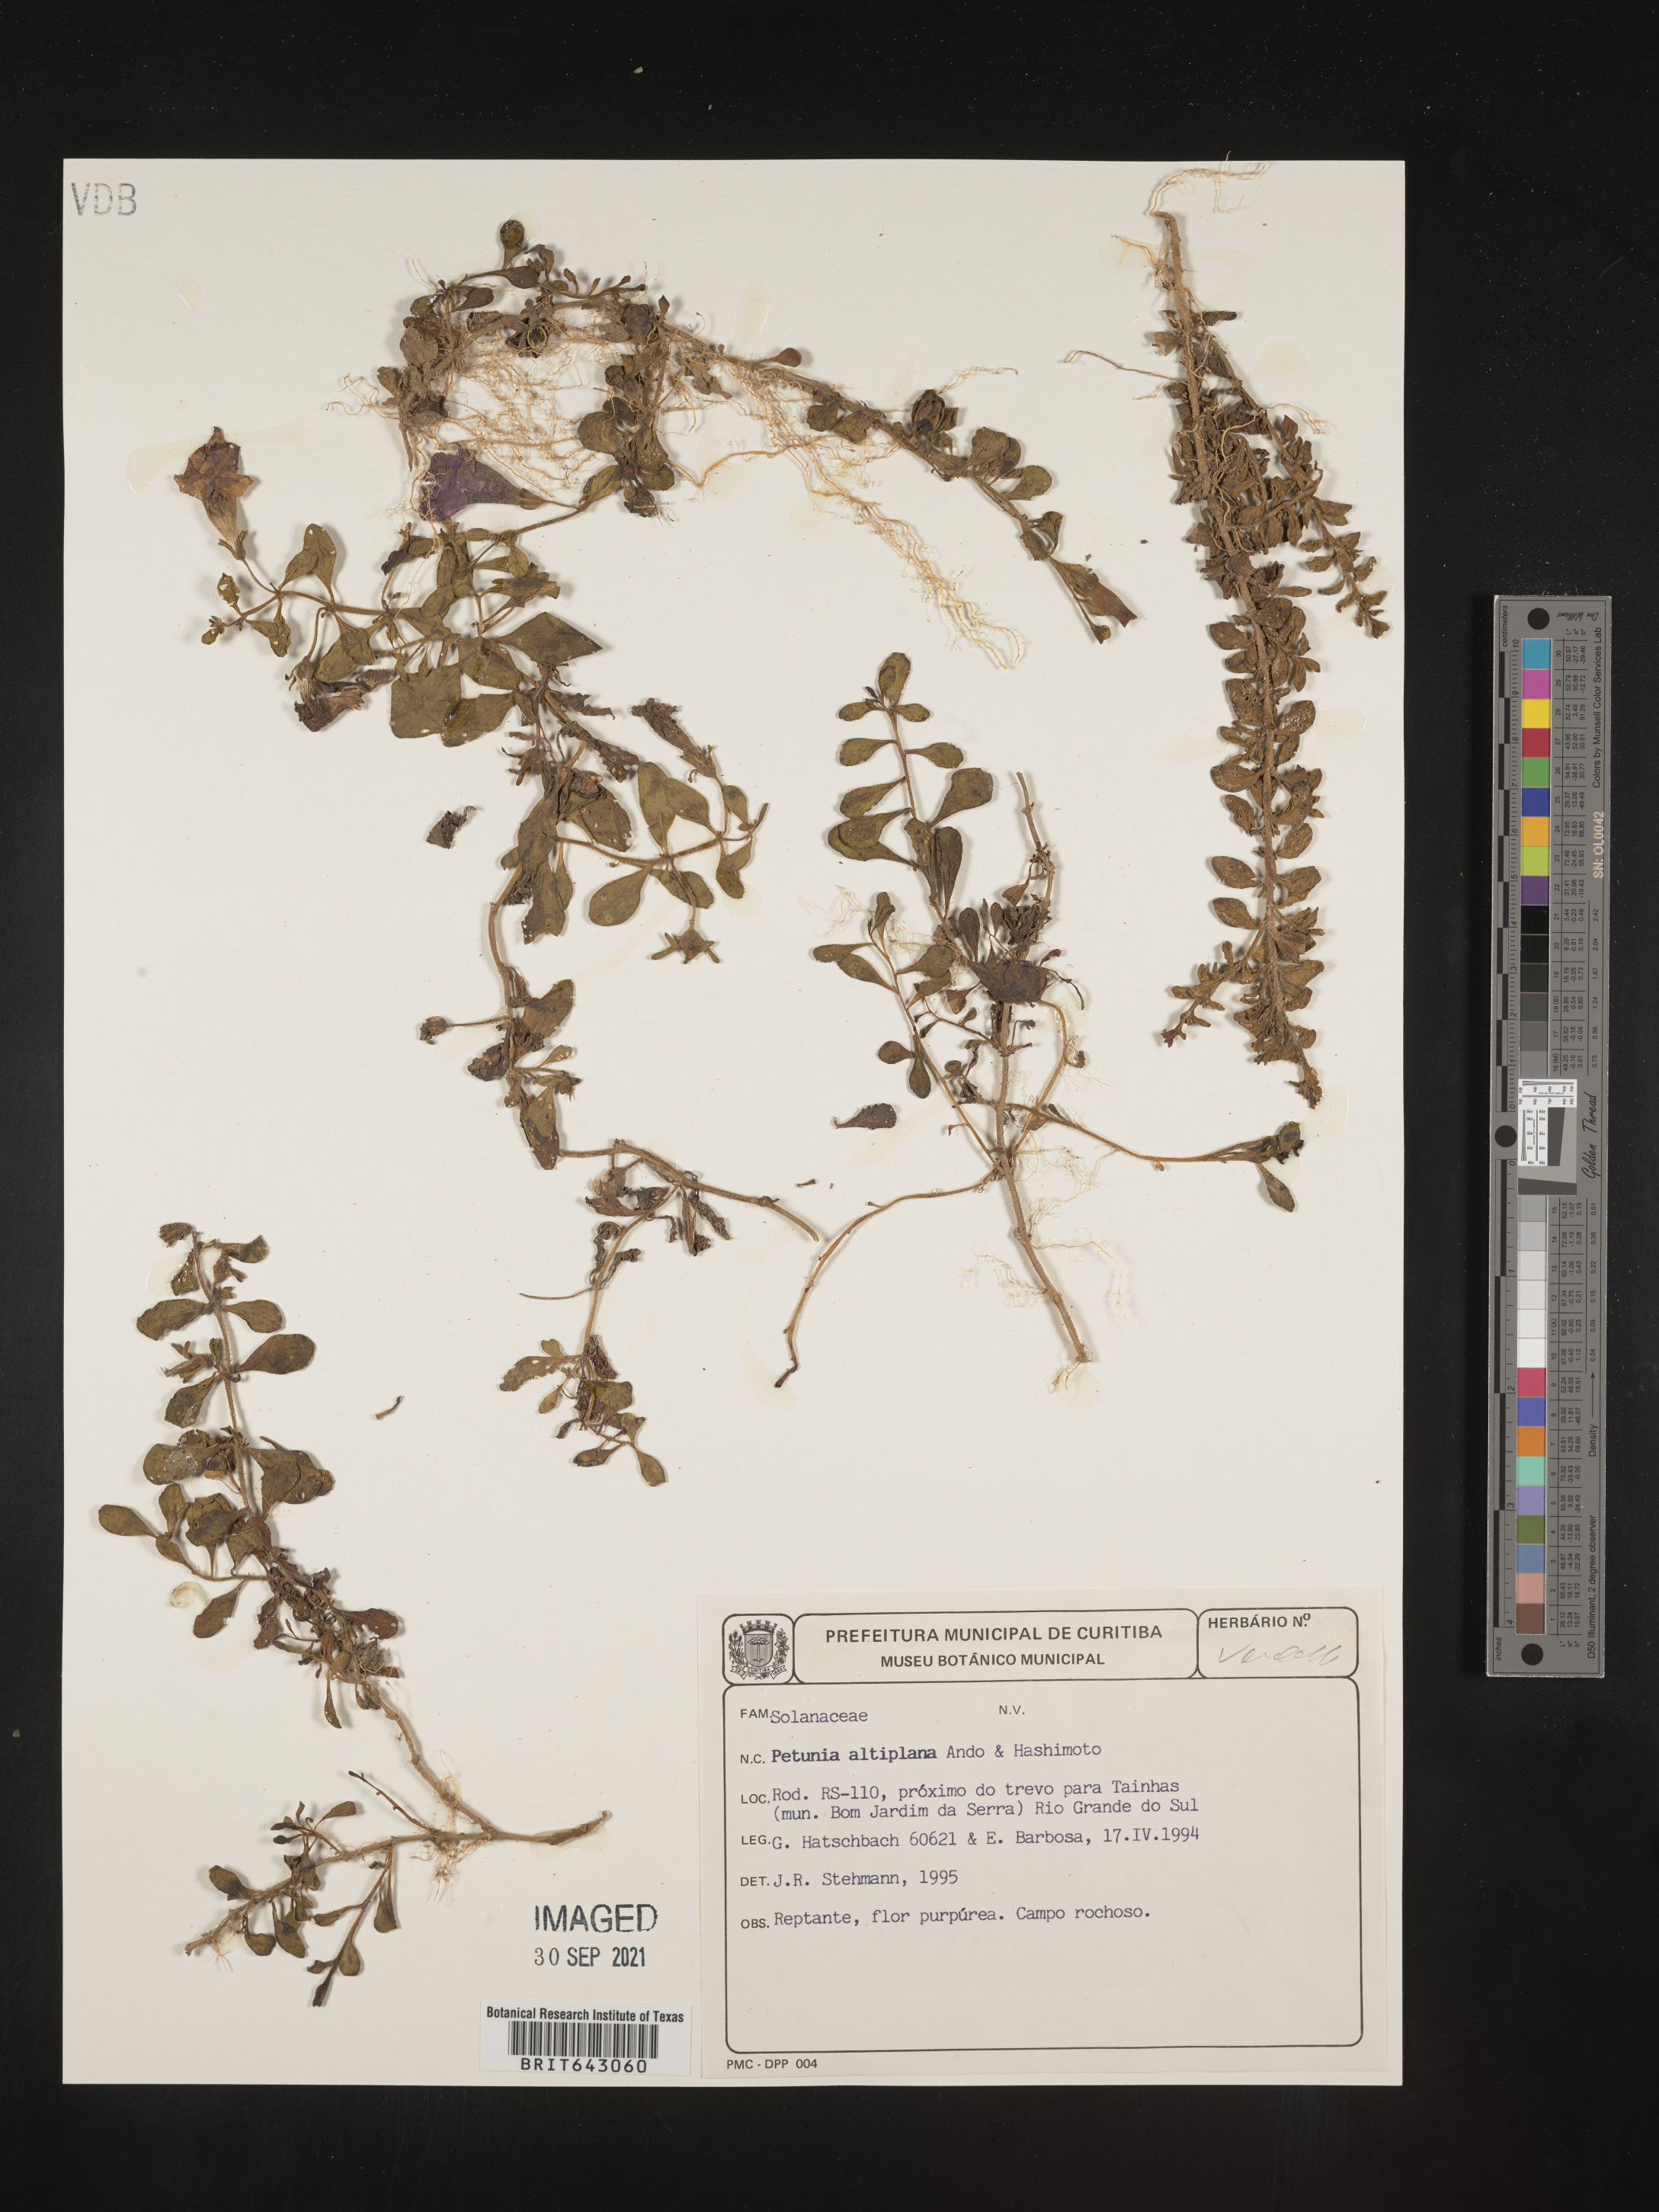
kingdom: Plantae
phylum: Tracheophyta
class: Magnoliopsida
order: Solanales
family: Solanaceae
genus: Petunia
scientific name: Petunia
